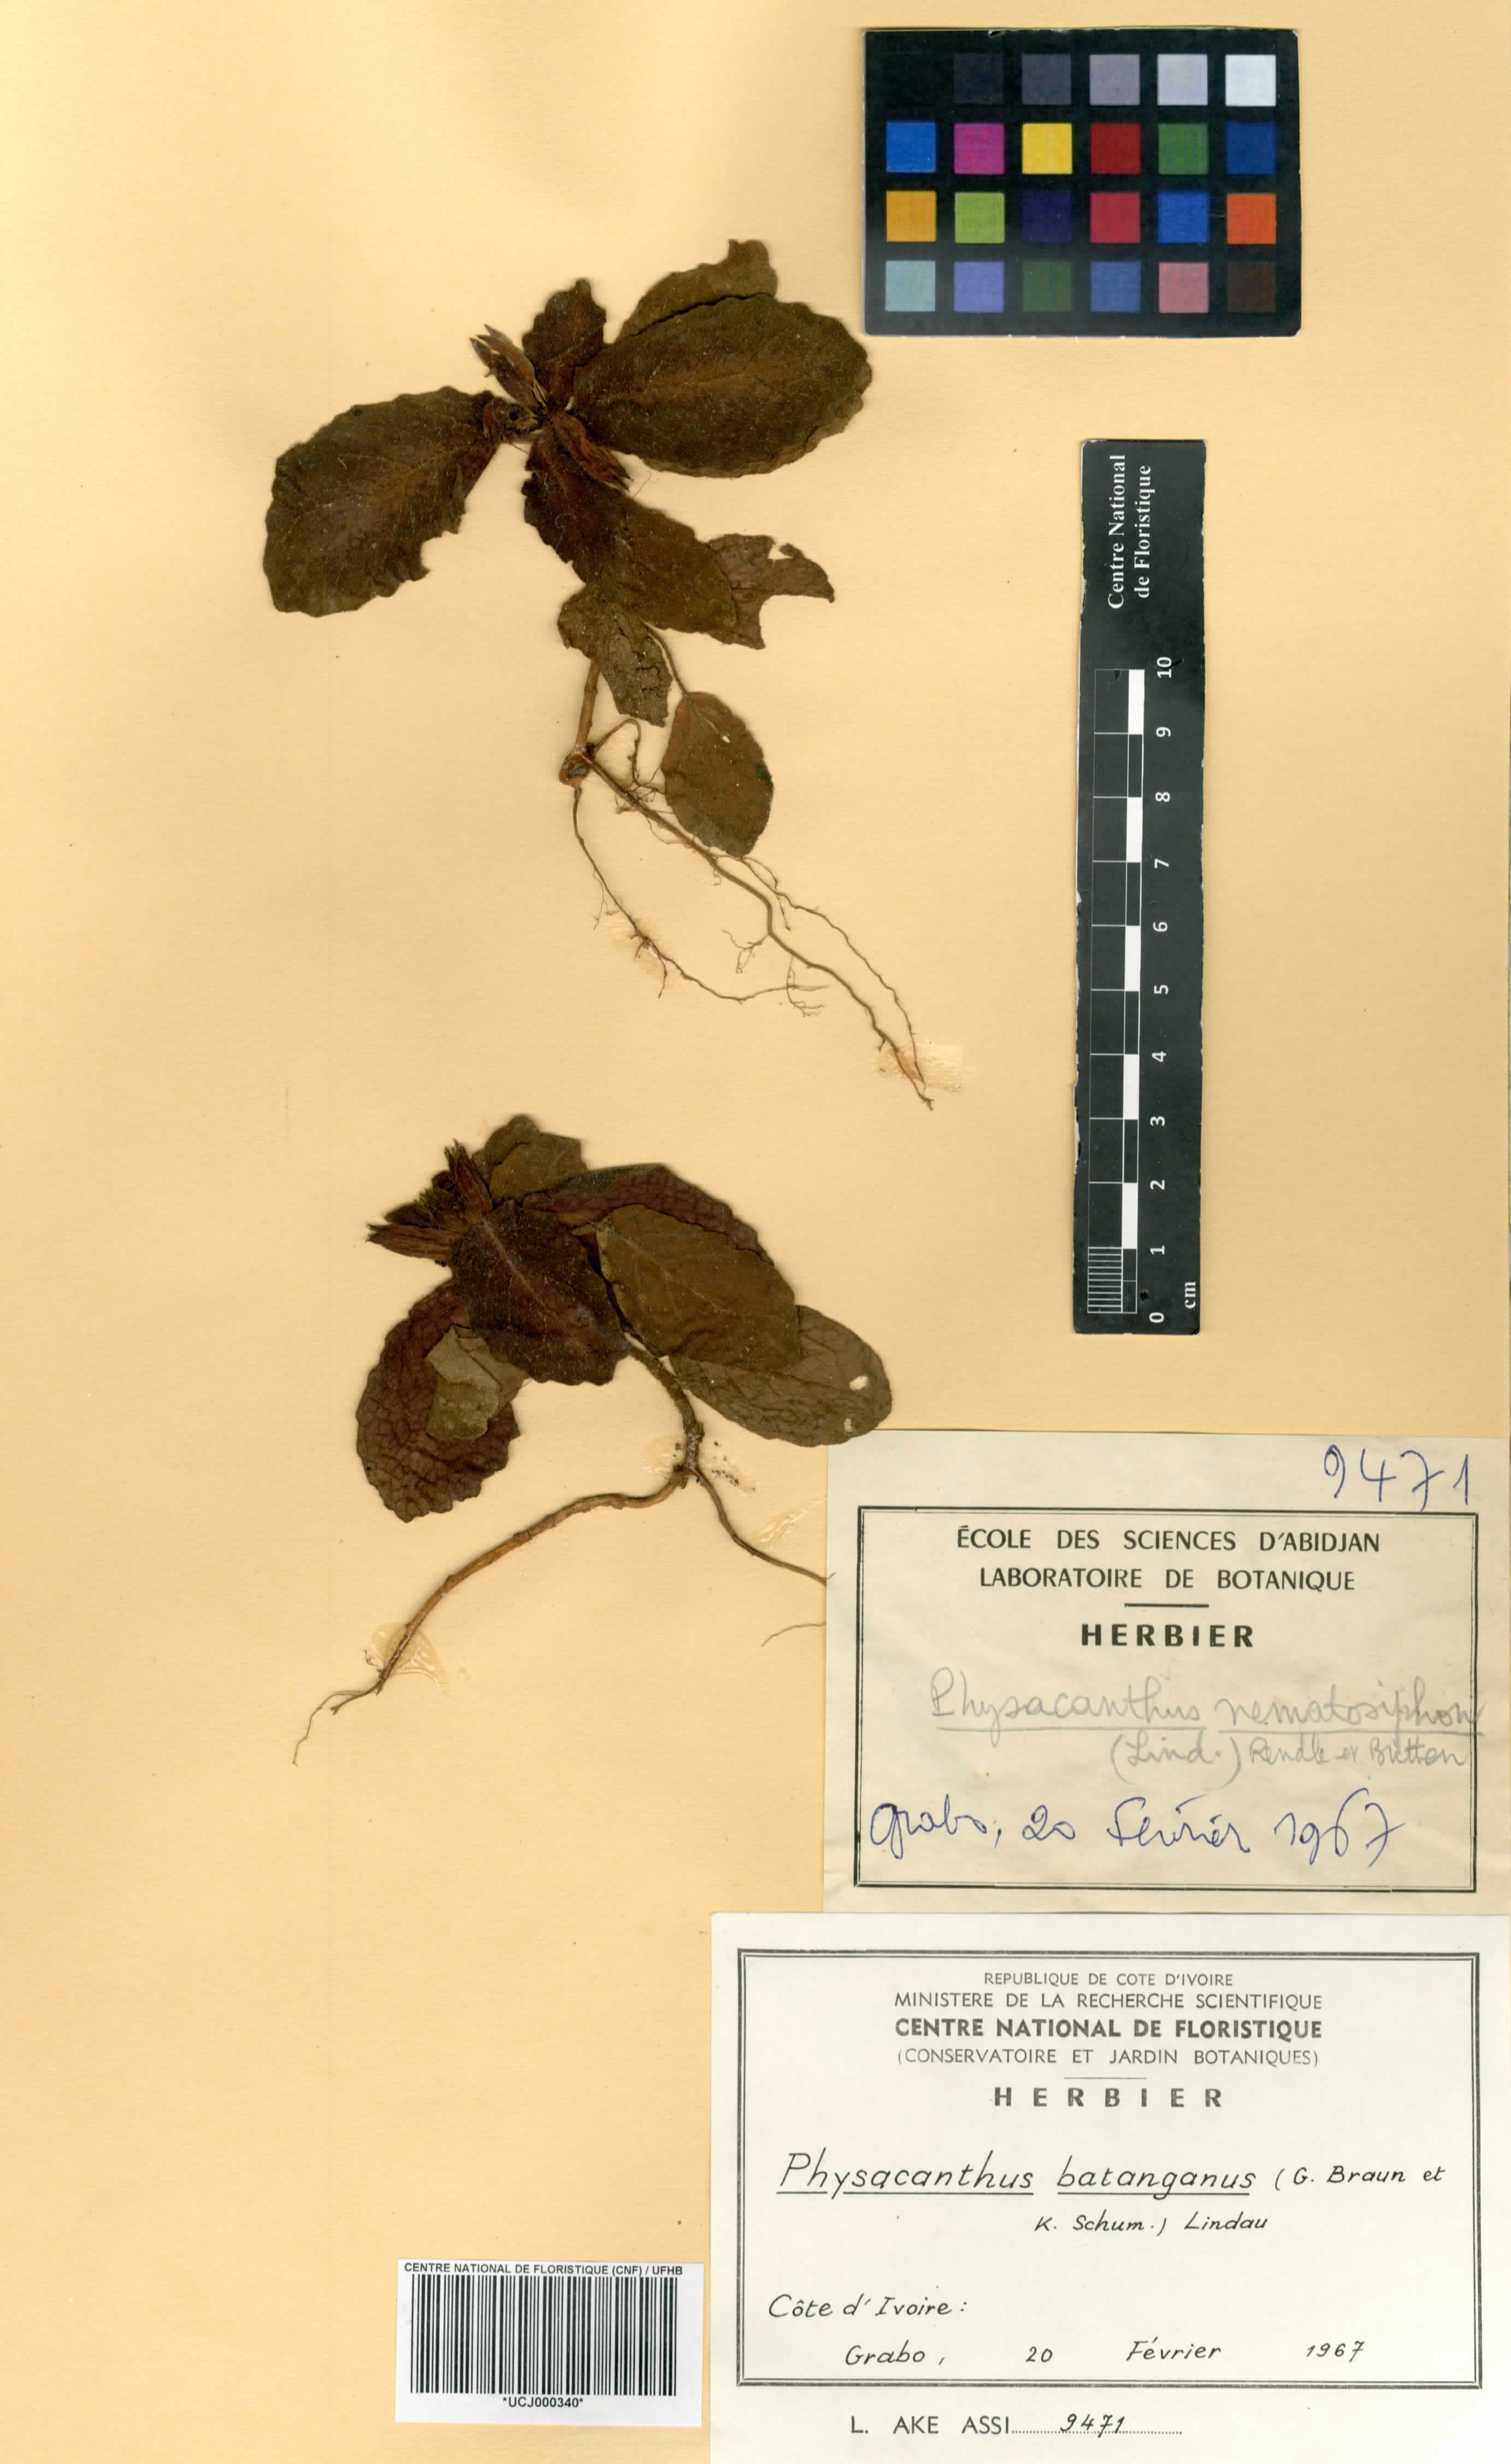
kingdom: Plantae
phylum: Tracheophyta
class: Magnoliopsida
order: Lamiales
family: Acanthaceae
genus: Physacanthus
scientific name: Physacanthus batanganus
